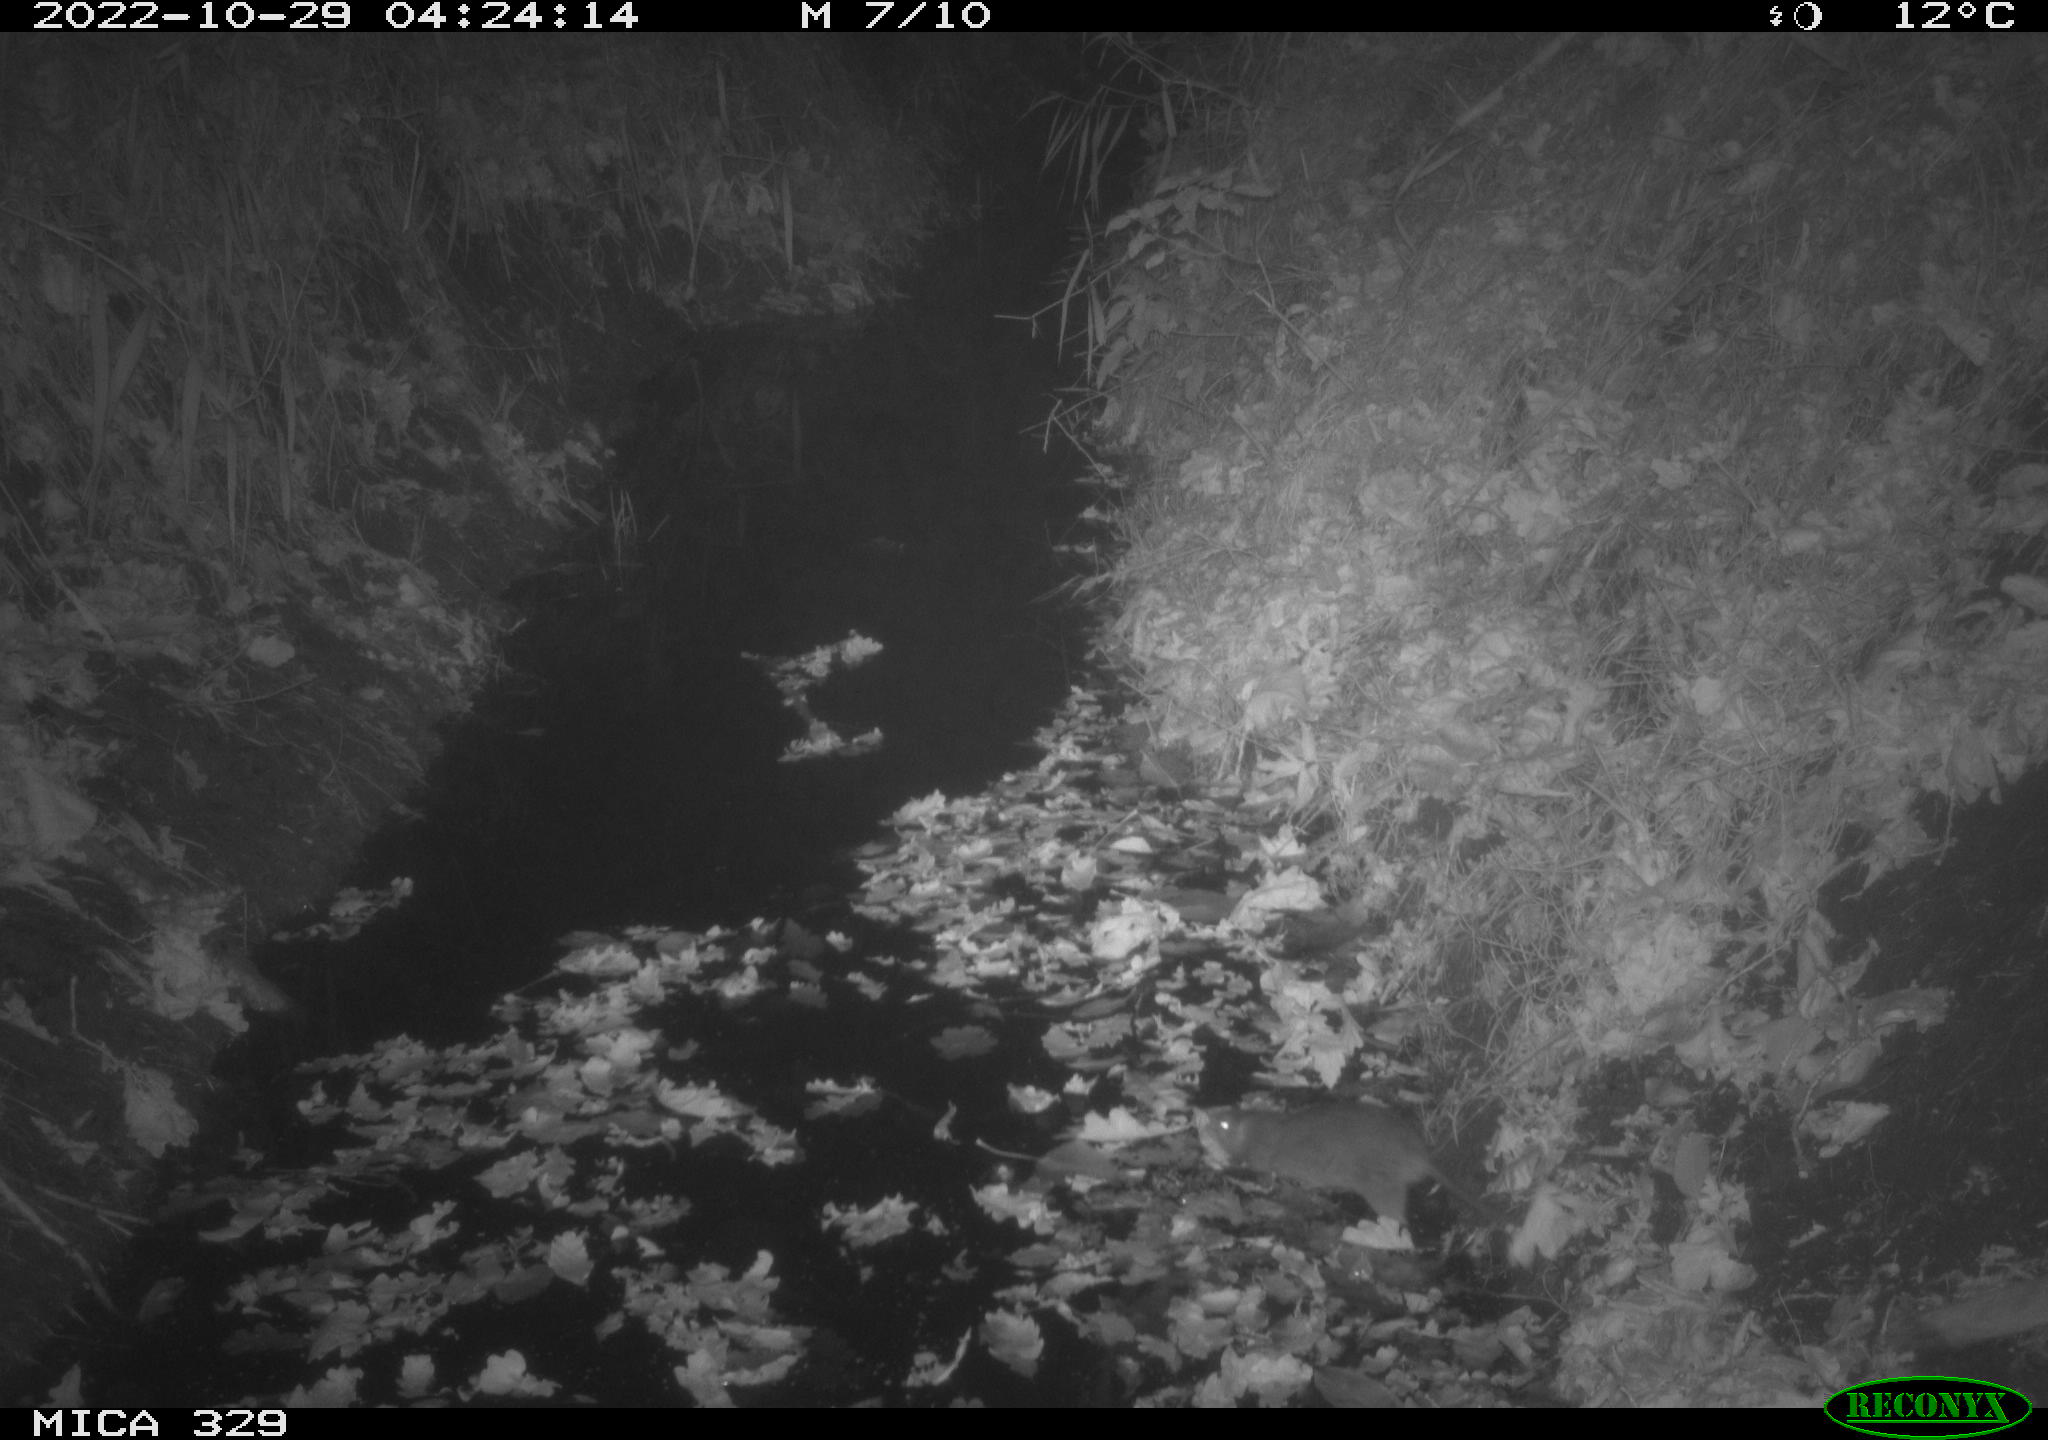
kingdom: Animalia
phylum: Chordata
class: Mammalia
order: Rodentia
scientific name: Rodentia
